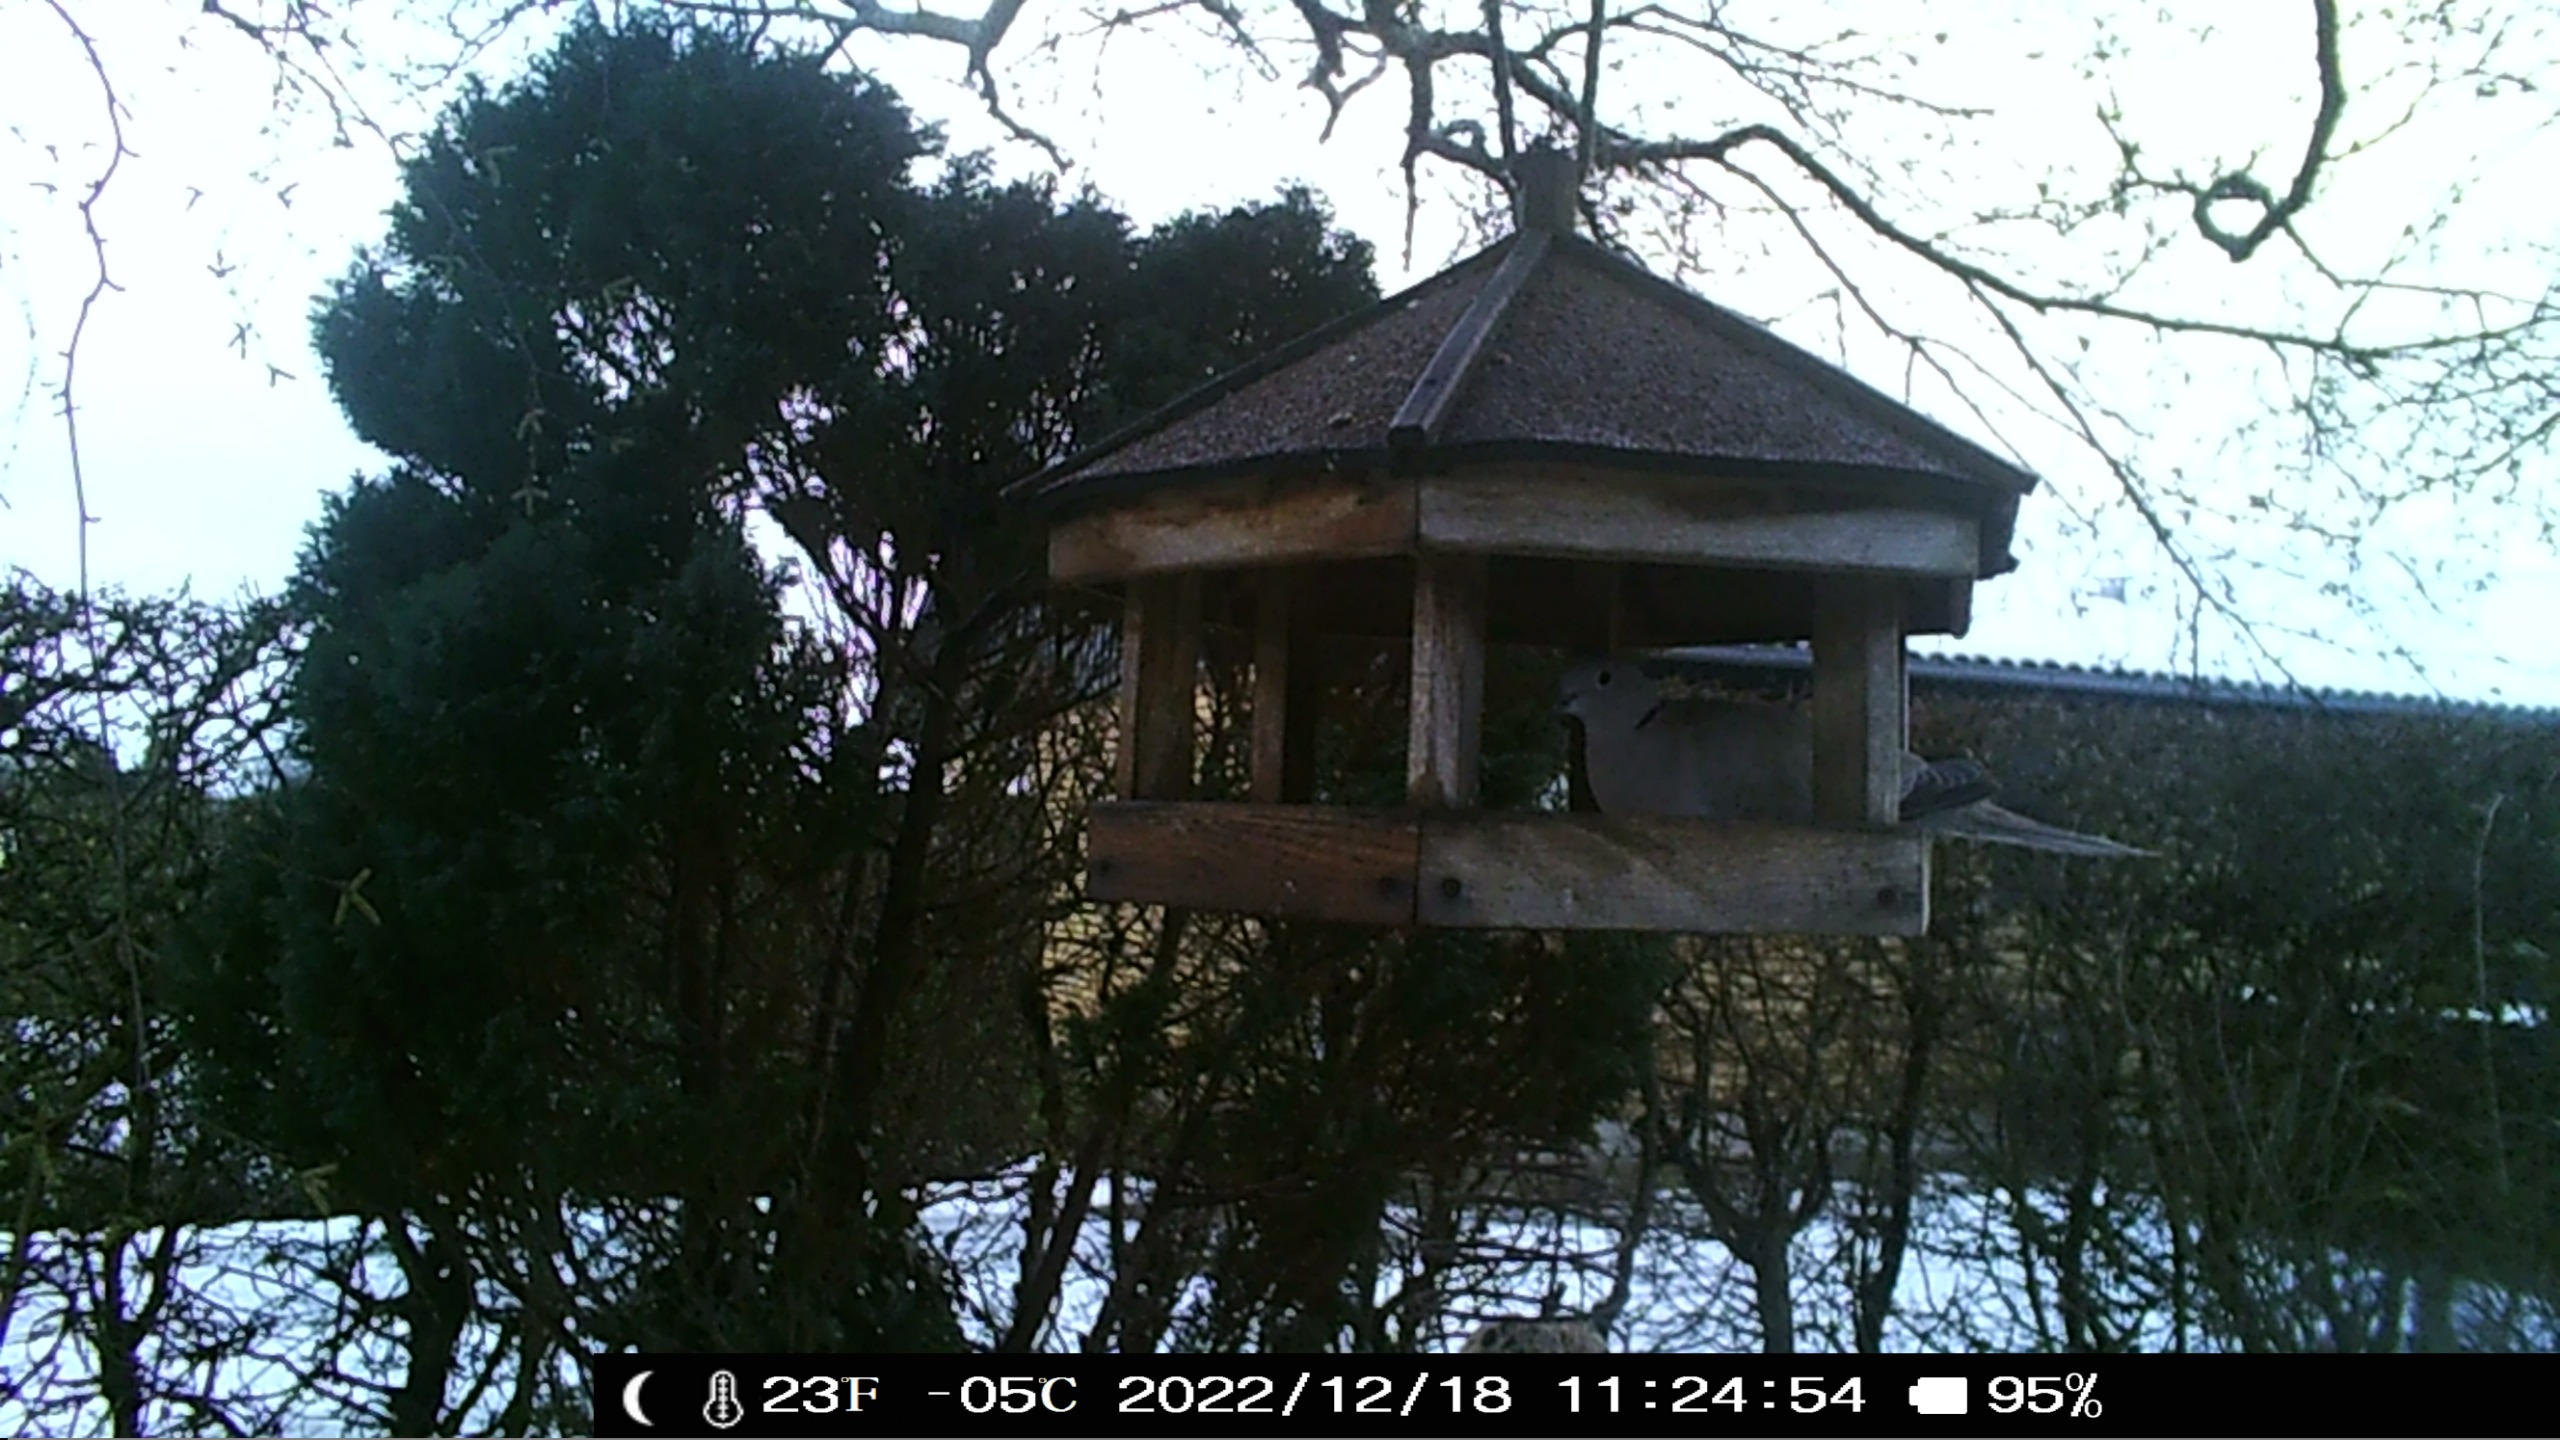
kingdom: Animalia
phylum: Chordata
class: Aves
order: Columbiformes
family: Columbidae
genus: Streptopelia
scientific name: Streptopelia decaocto
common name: Tyrkerdue
